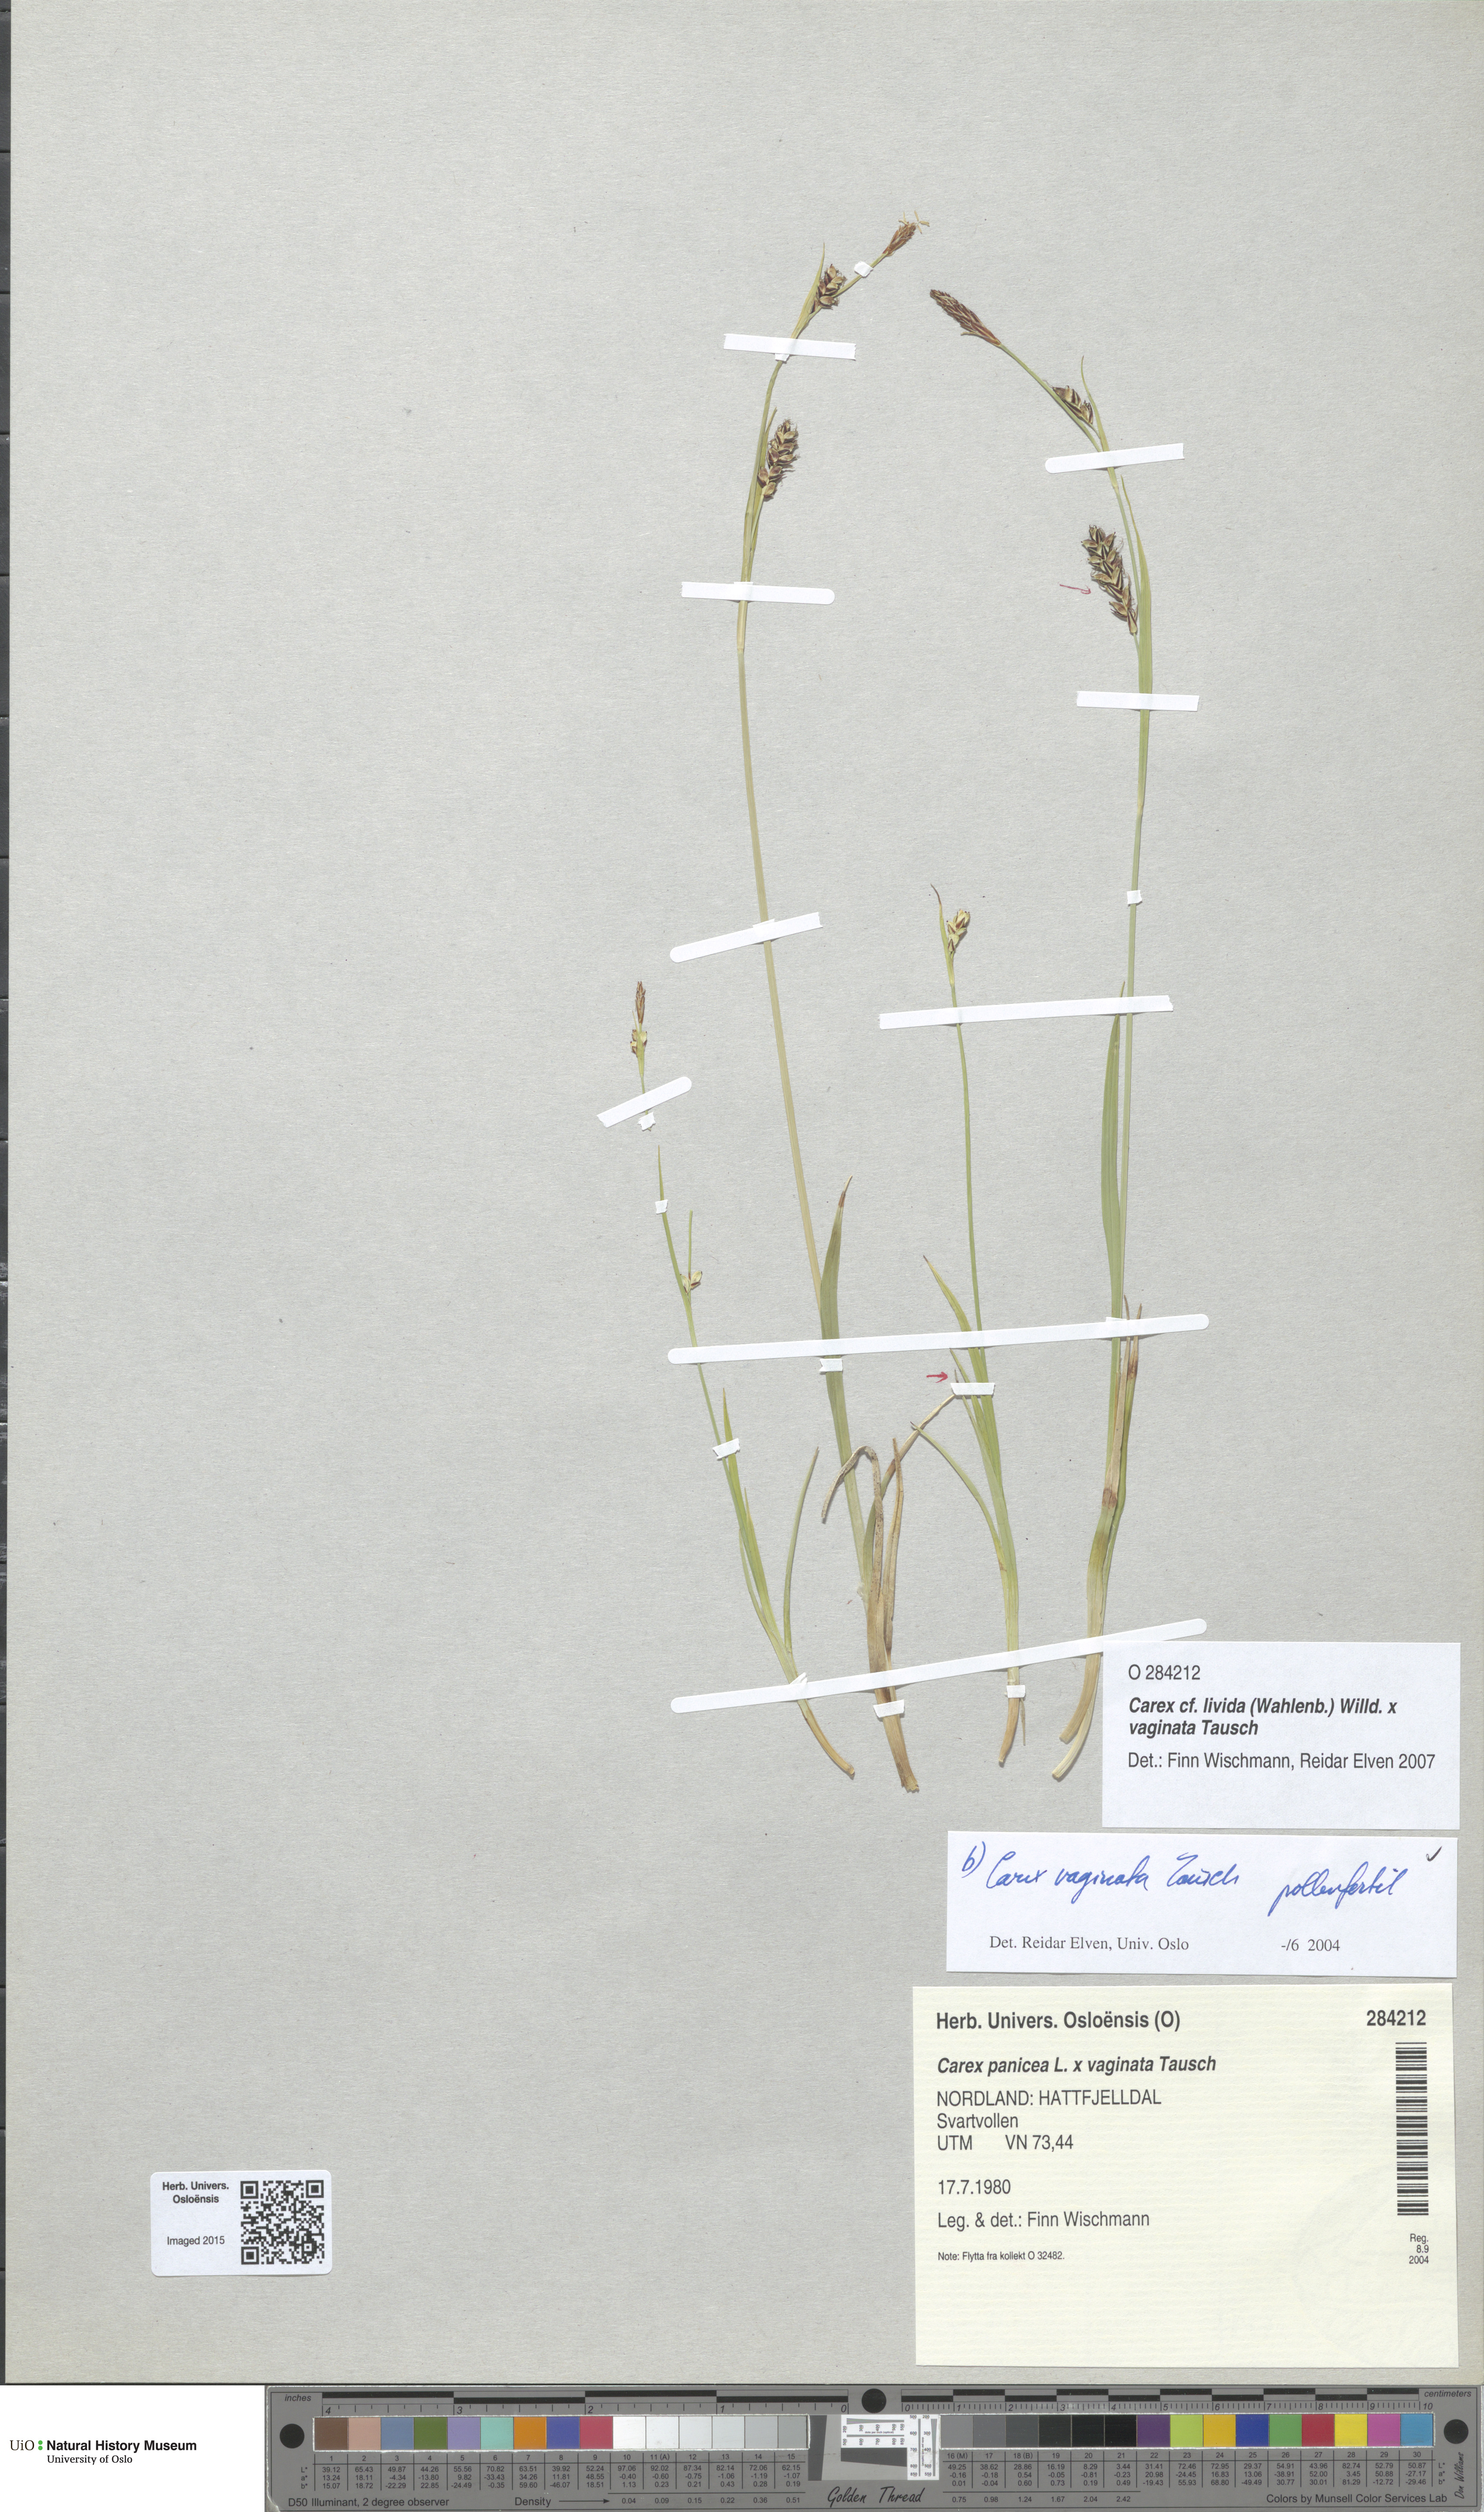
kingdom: Plantae
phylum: Tracheophyta
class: Liliopsida
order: Poales
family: Cyperaceae
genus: Carex
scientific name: Carex
